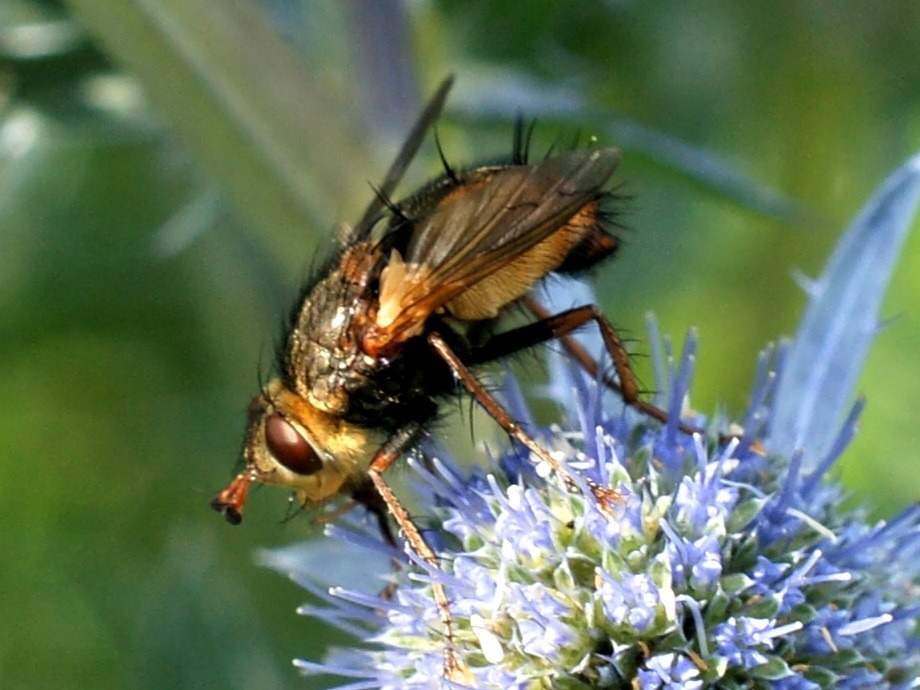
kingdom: Animalia
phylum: Arthropoda
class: Insecta
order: Diptera
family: Tachinidae
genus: Tachina
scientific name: Tachina fera
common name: Mellemfluen oskar
